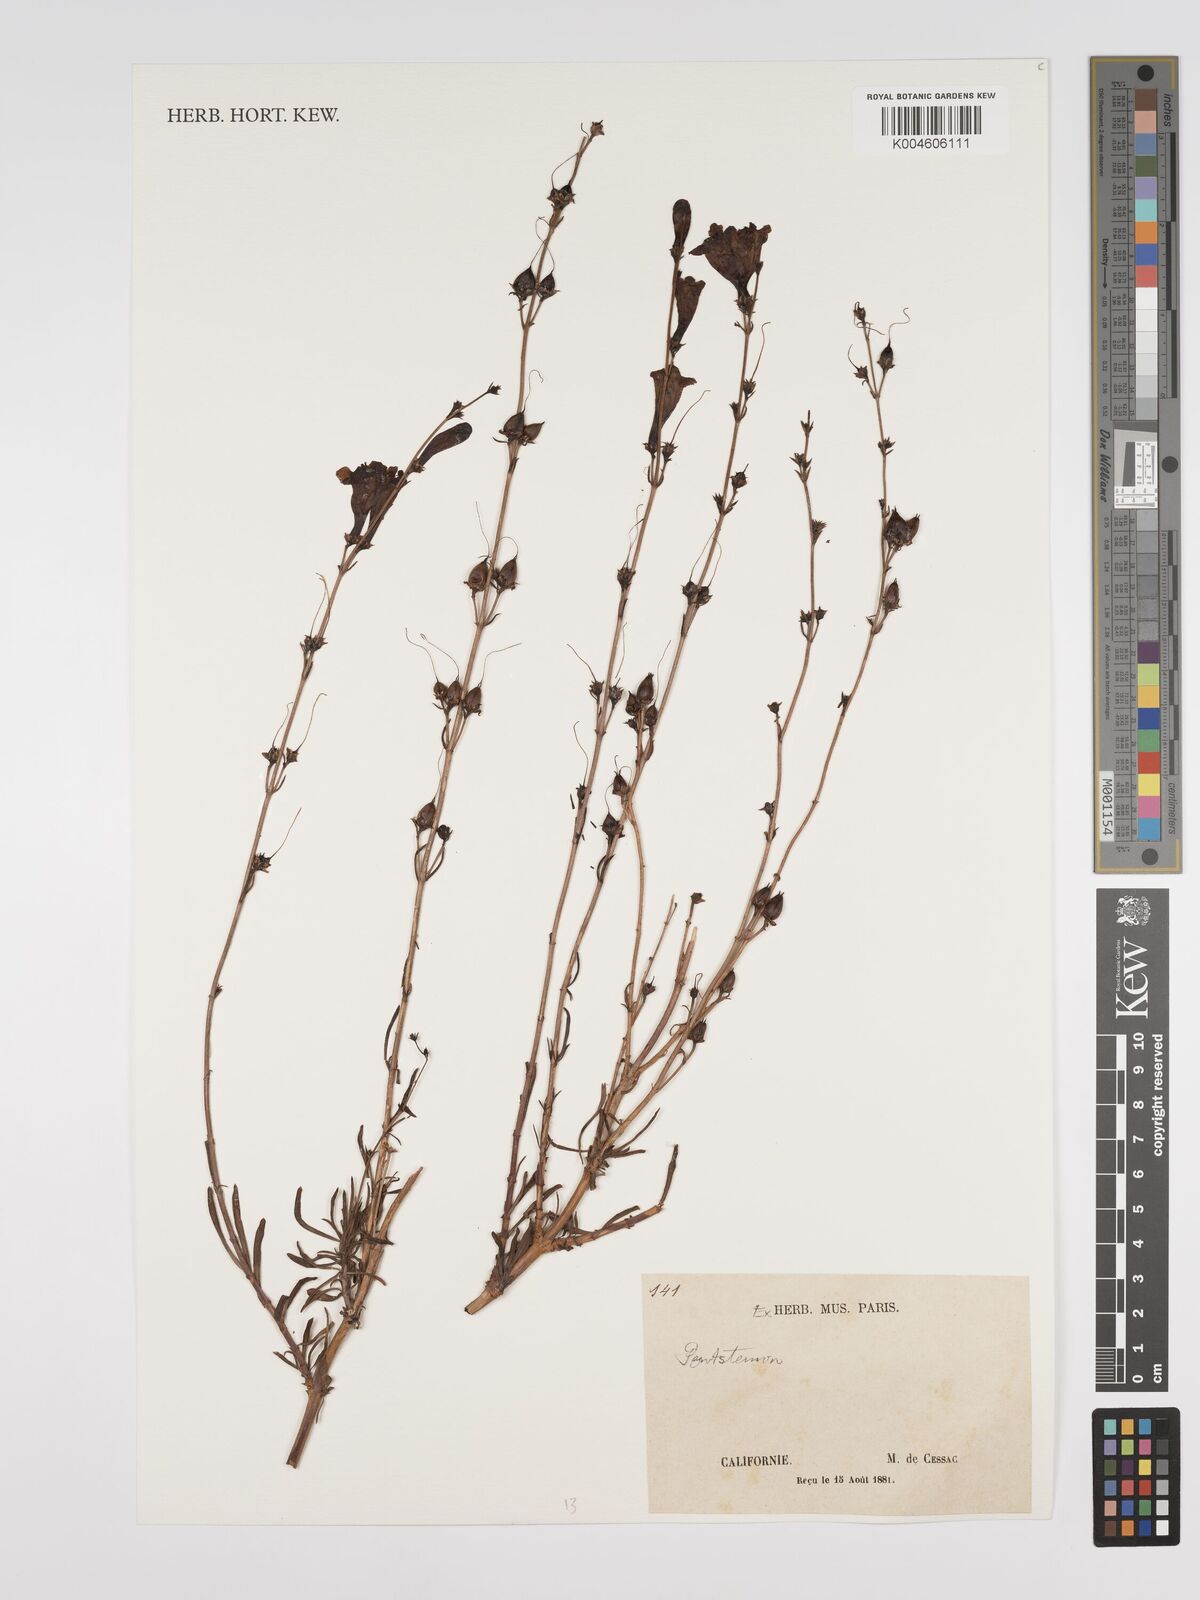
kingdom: Plantae
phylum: Tracheophyta
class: Magnoliopsida
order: Lamiales
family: Plantaginaceae
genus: Penstemon
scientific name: Penstemon
